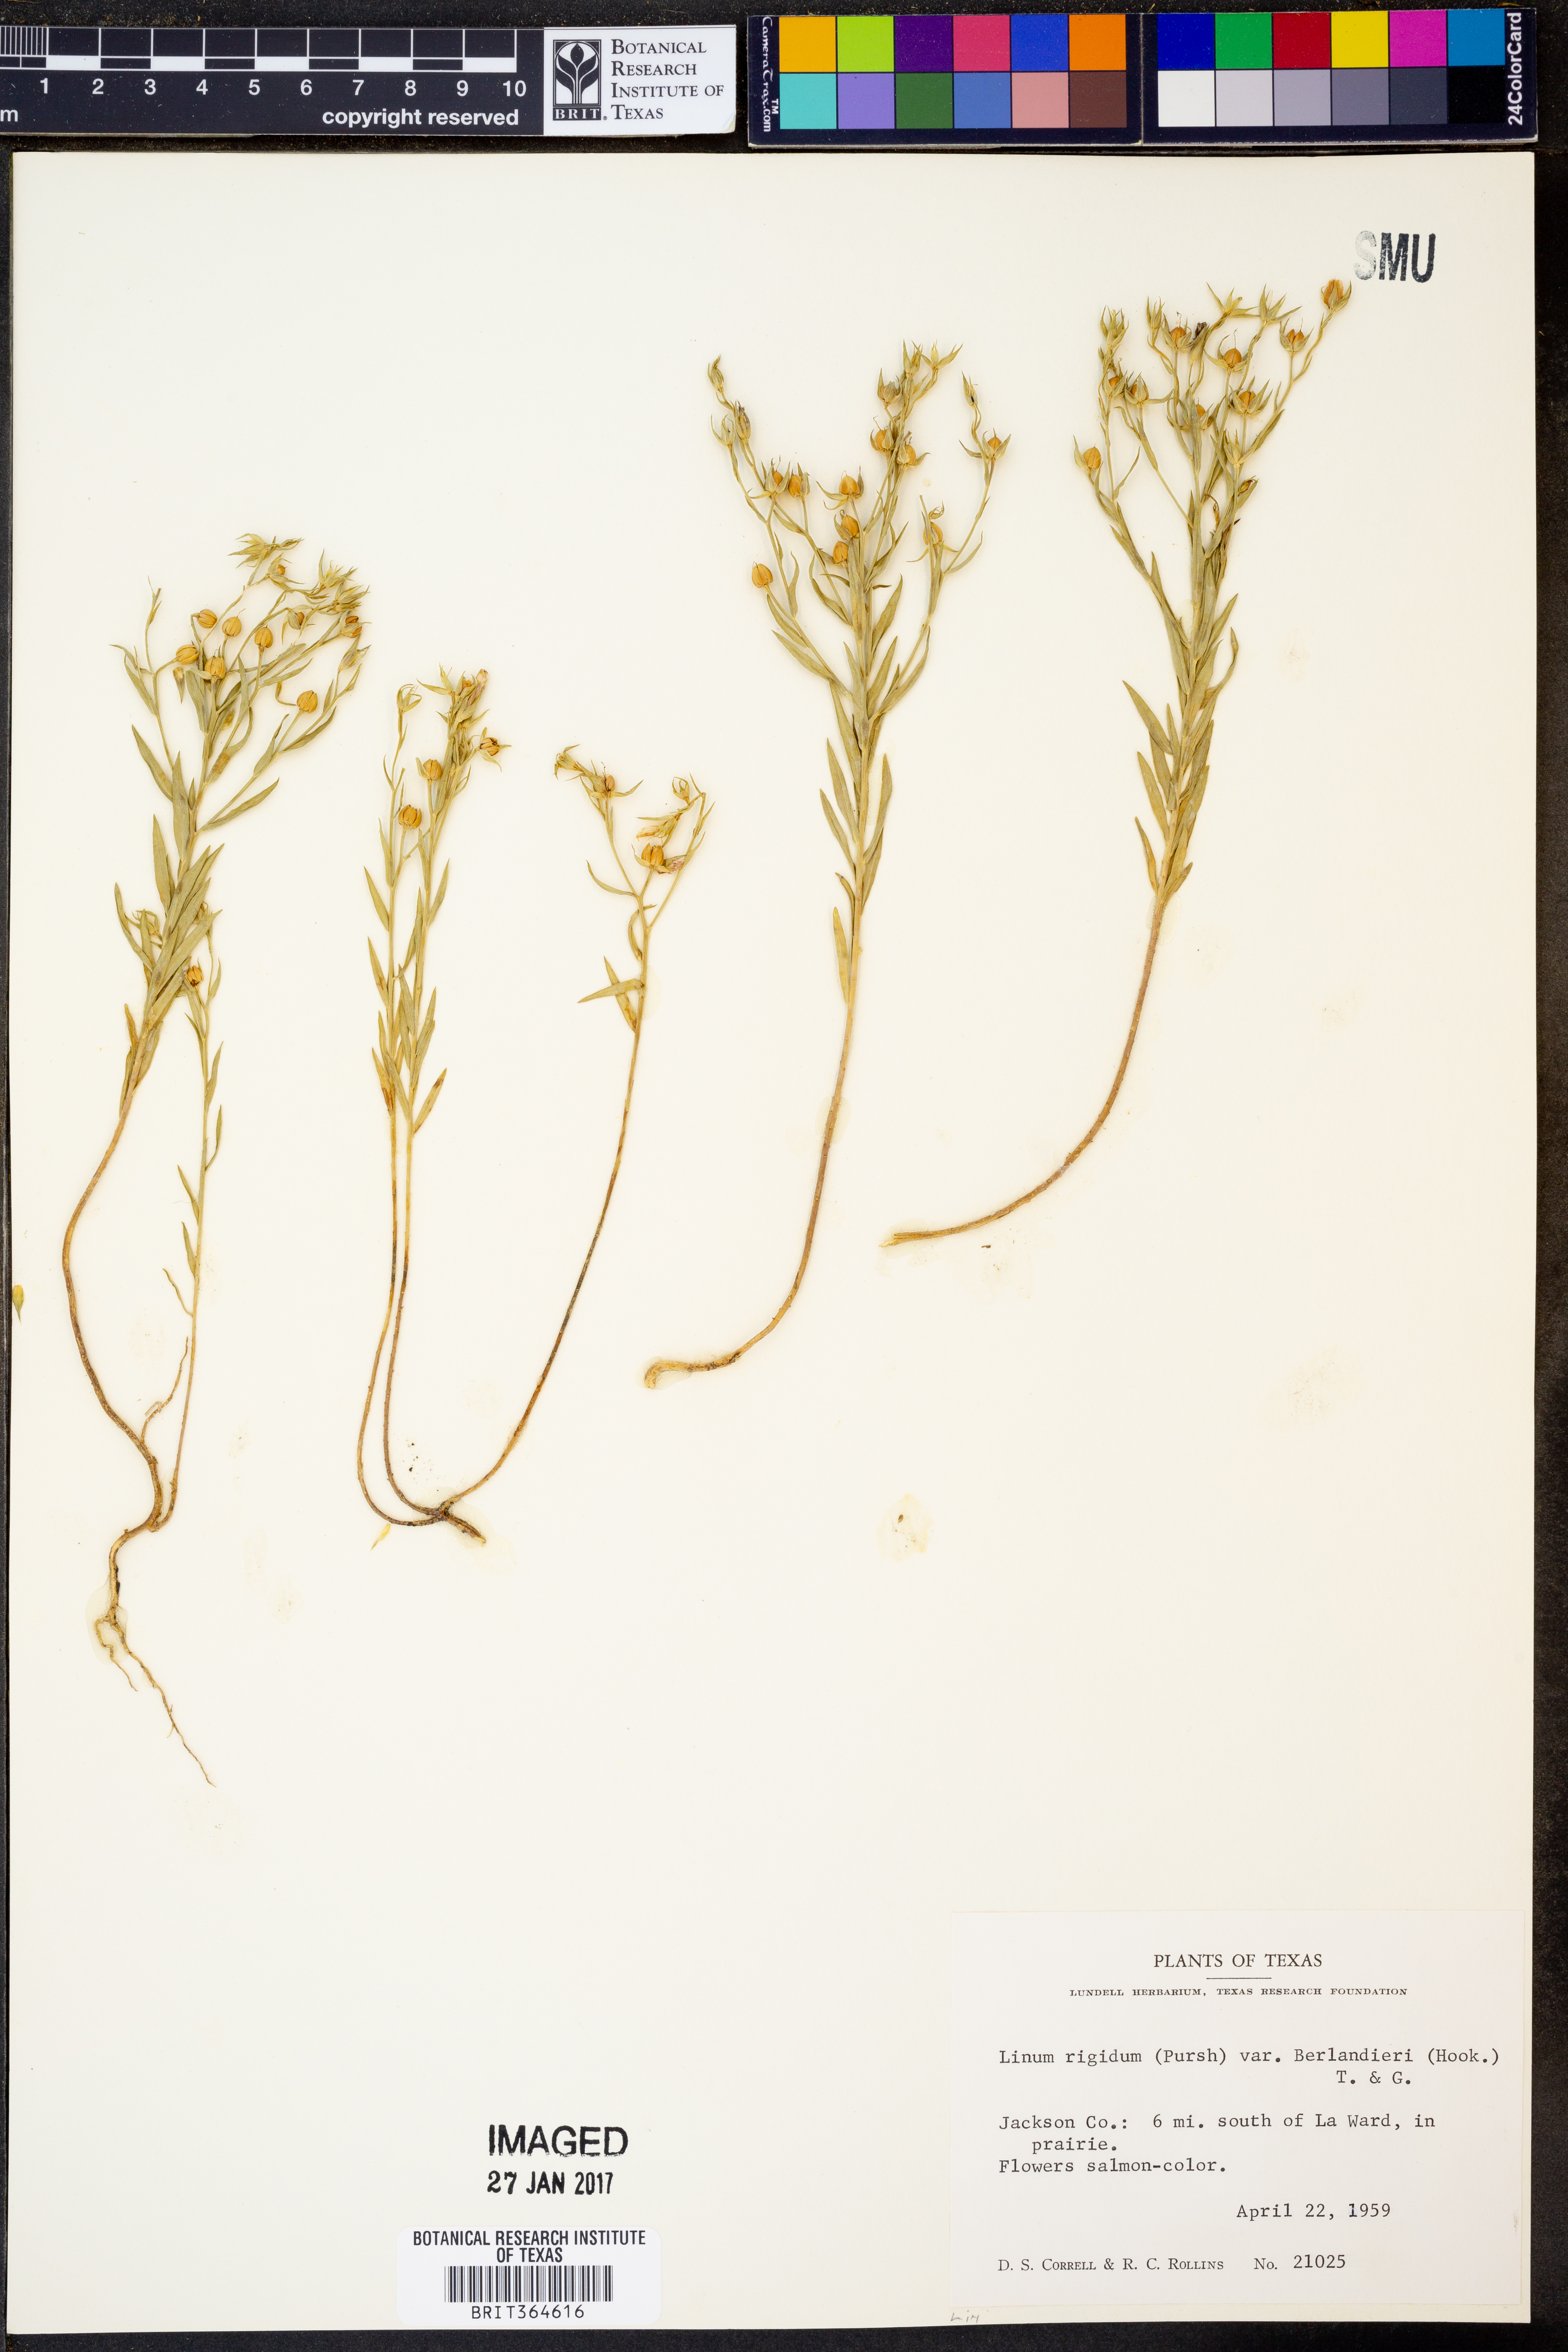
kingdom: Plantae
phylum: Tracheophyta
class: Magnoliopsida
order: Malpighiales
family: Linaceae
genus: Linum
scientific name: Linum berlandieri
